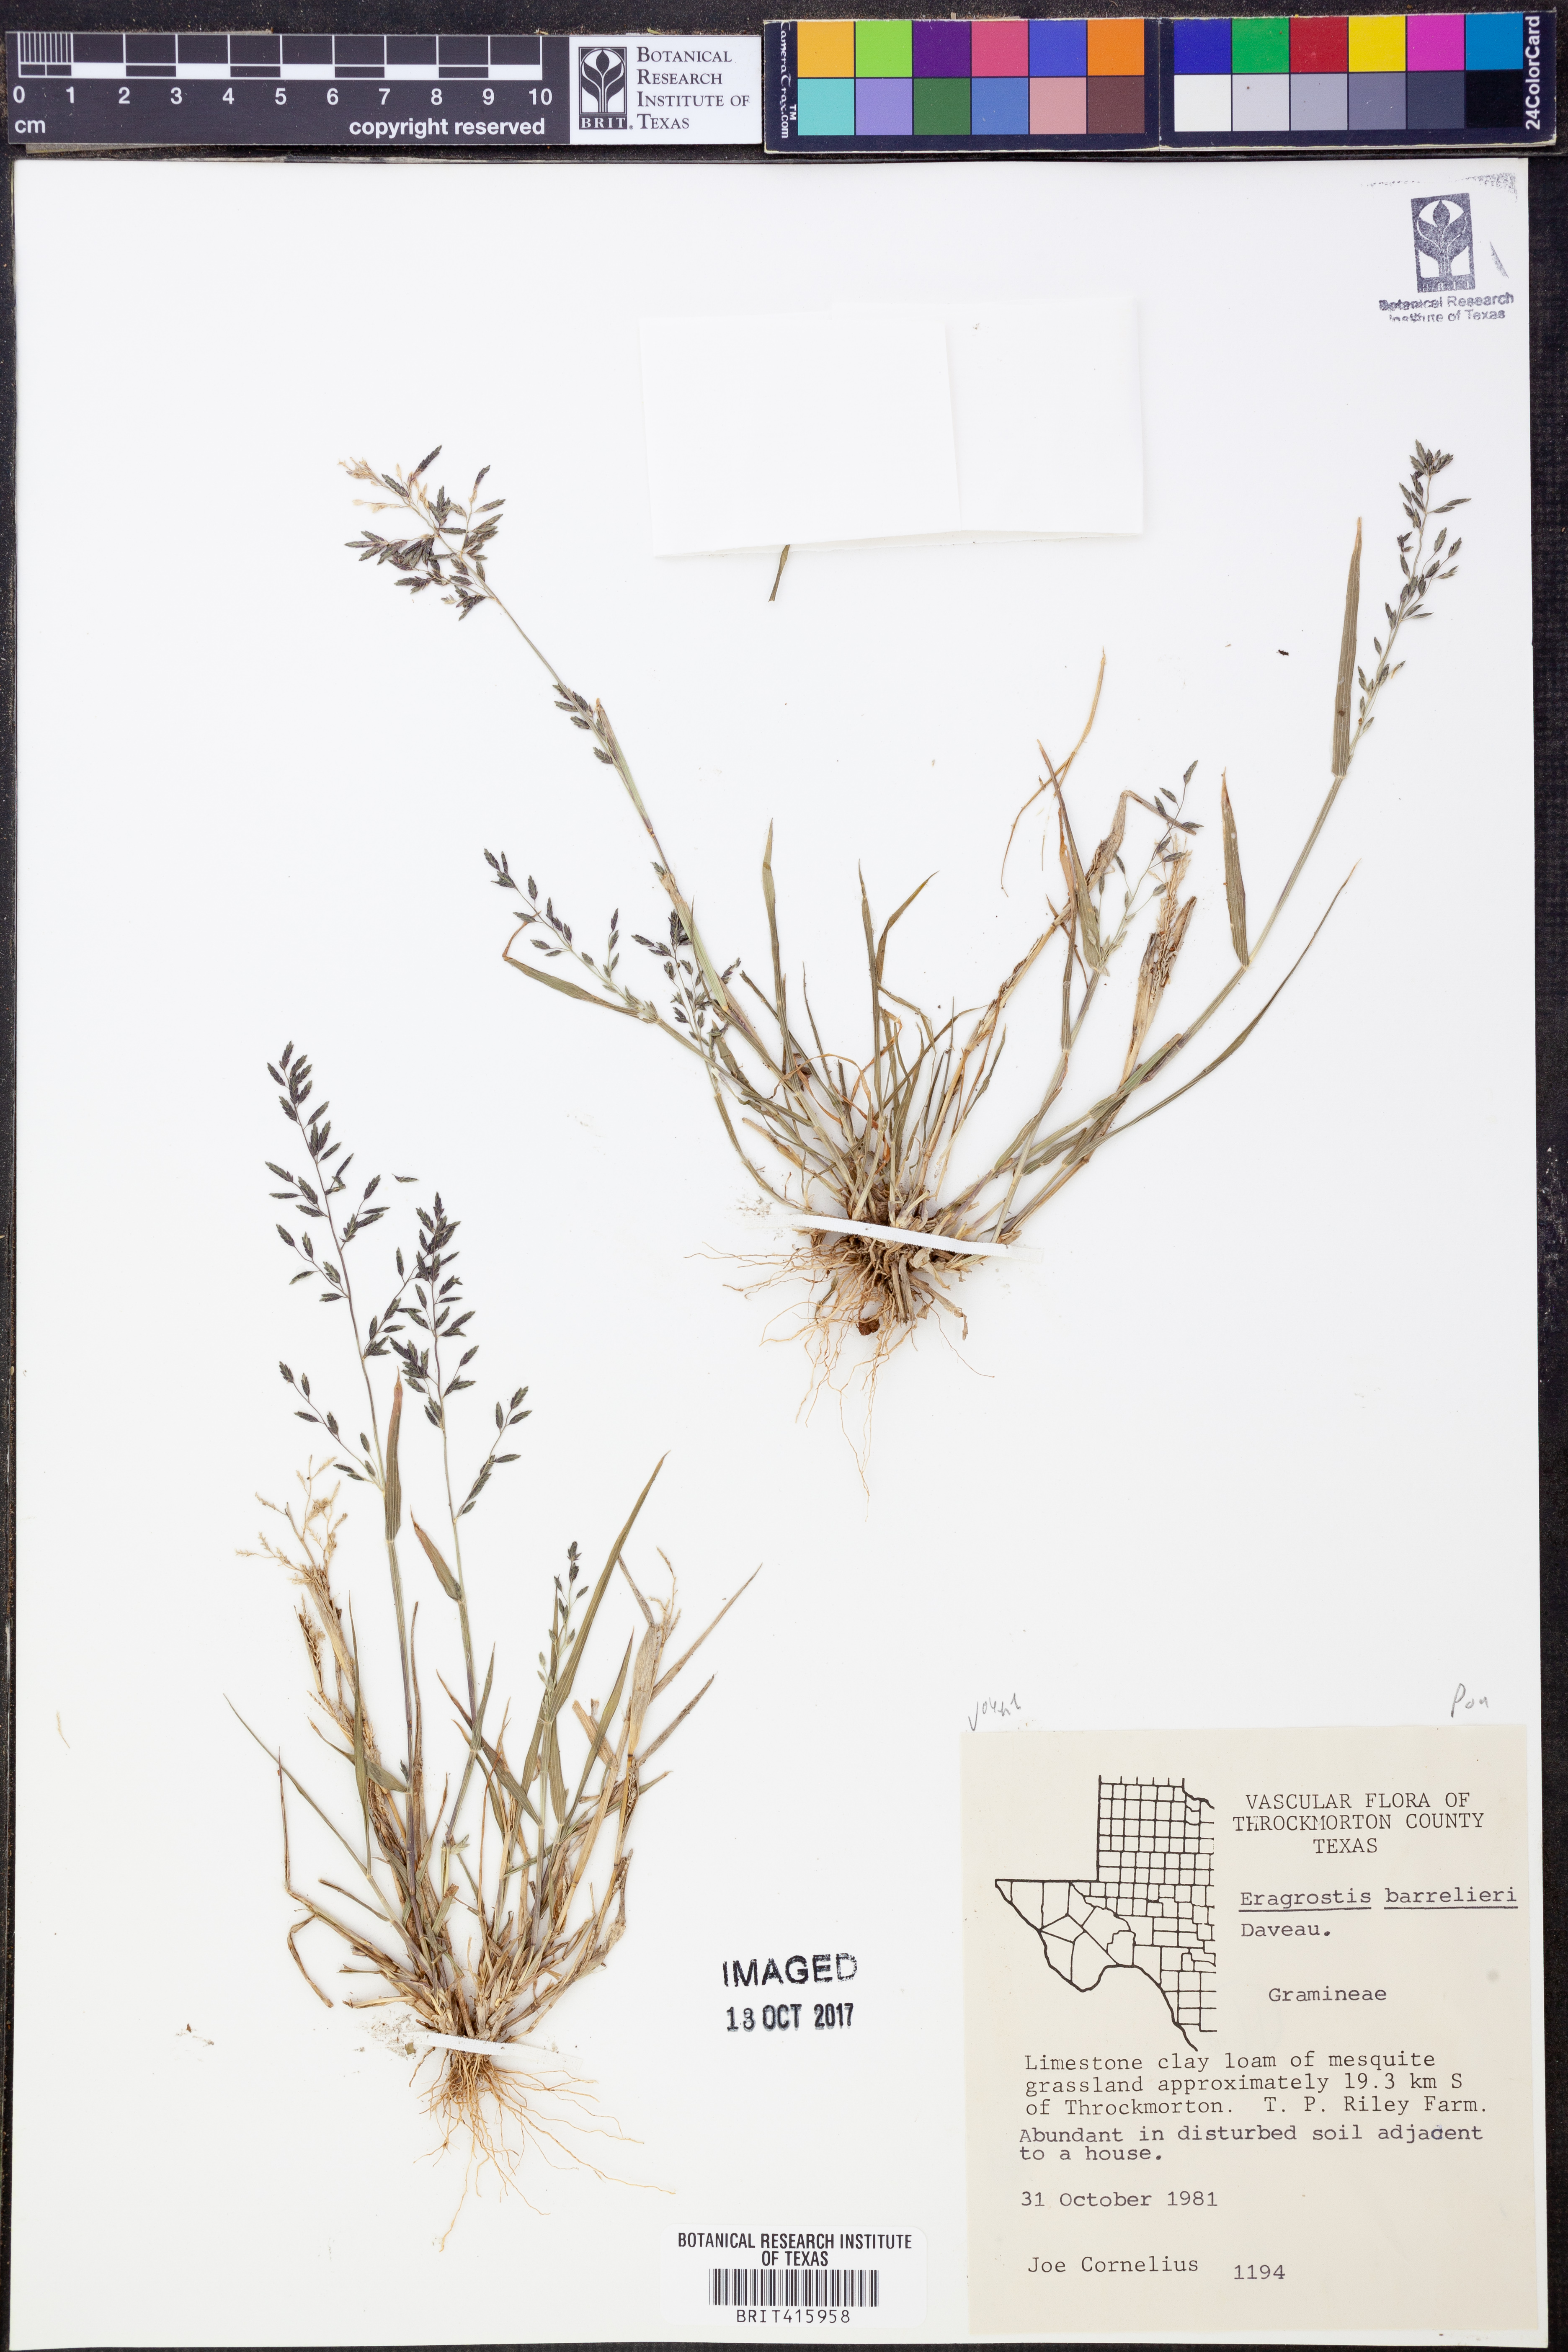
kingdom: Plantae
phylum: Tracheophyta
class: Liliopsida
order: Poales
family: Poaceae
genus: Eragrostis
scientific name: Eragrostis barrelieri
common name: Mediterranean lovegrass
